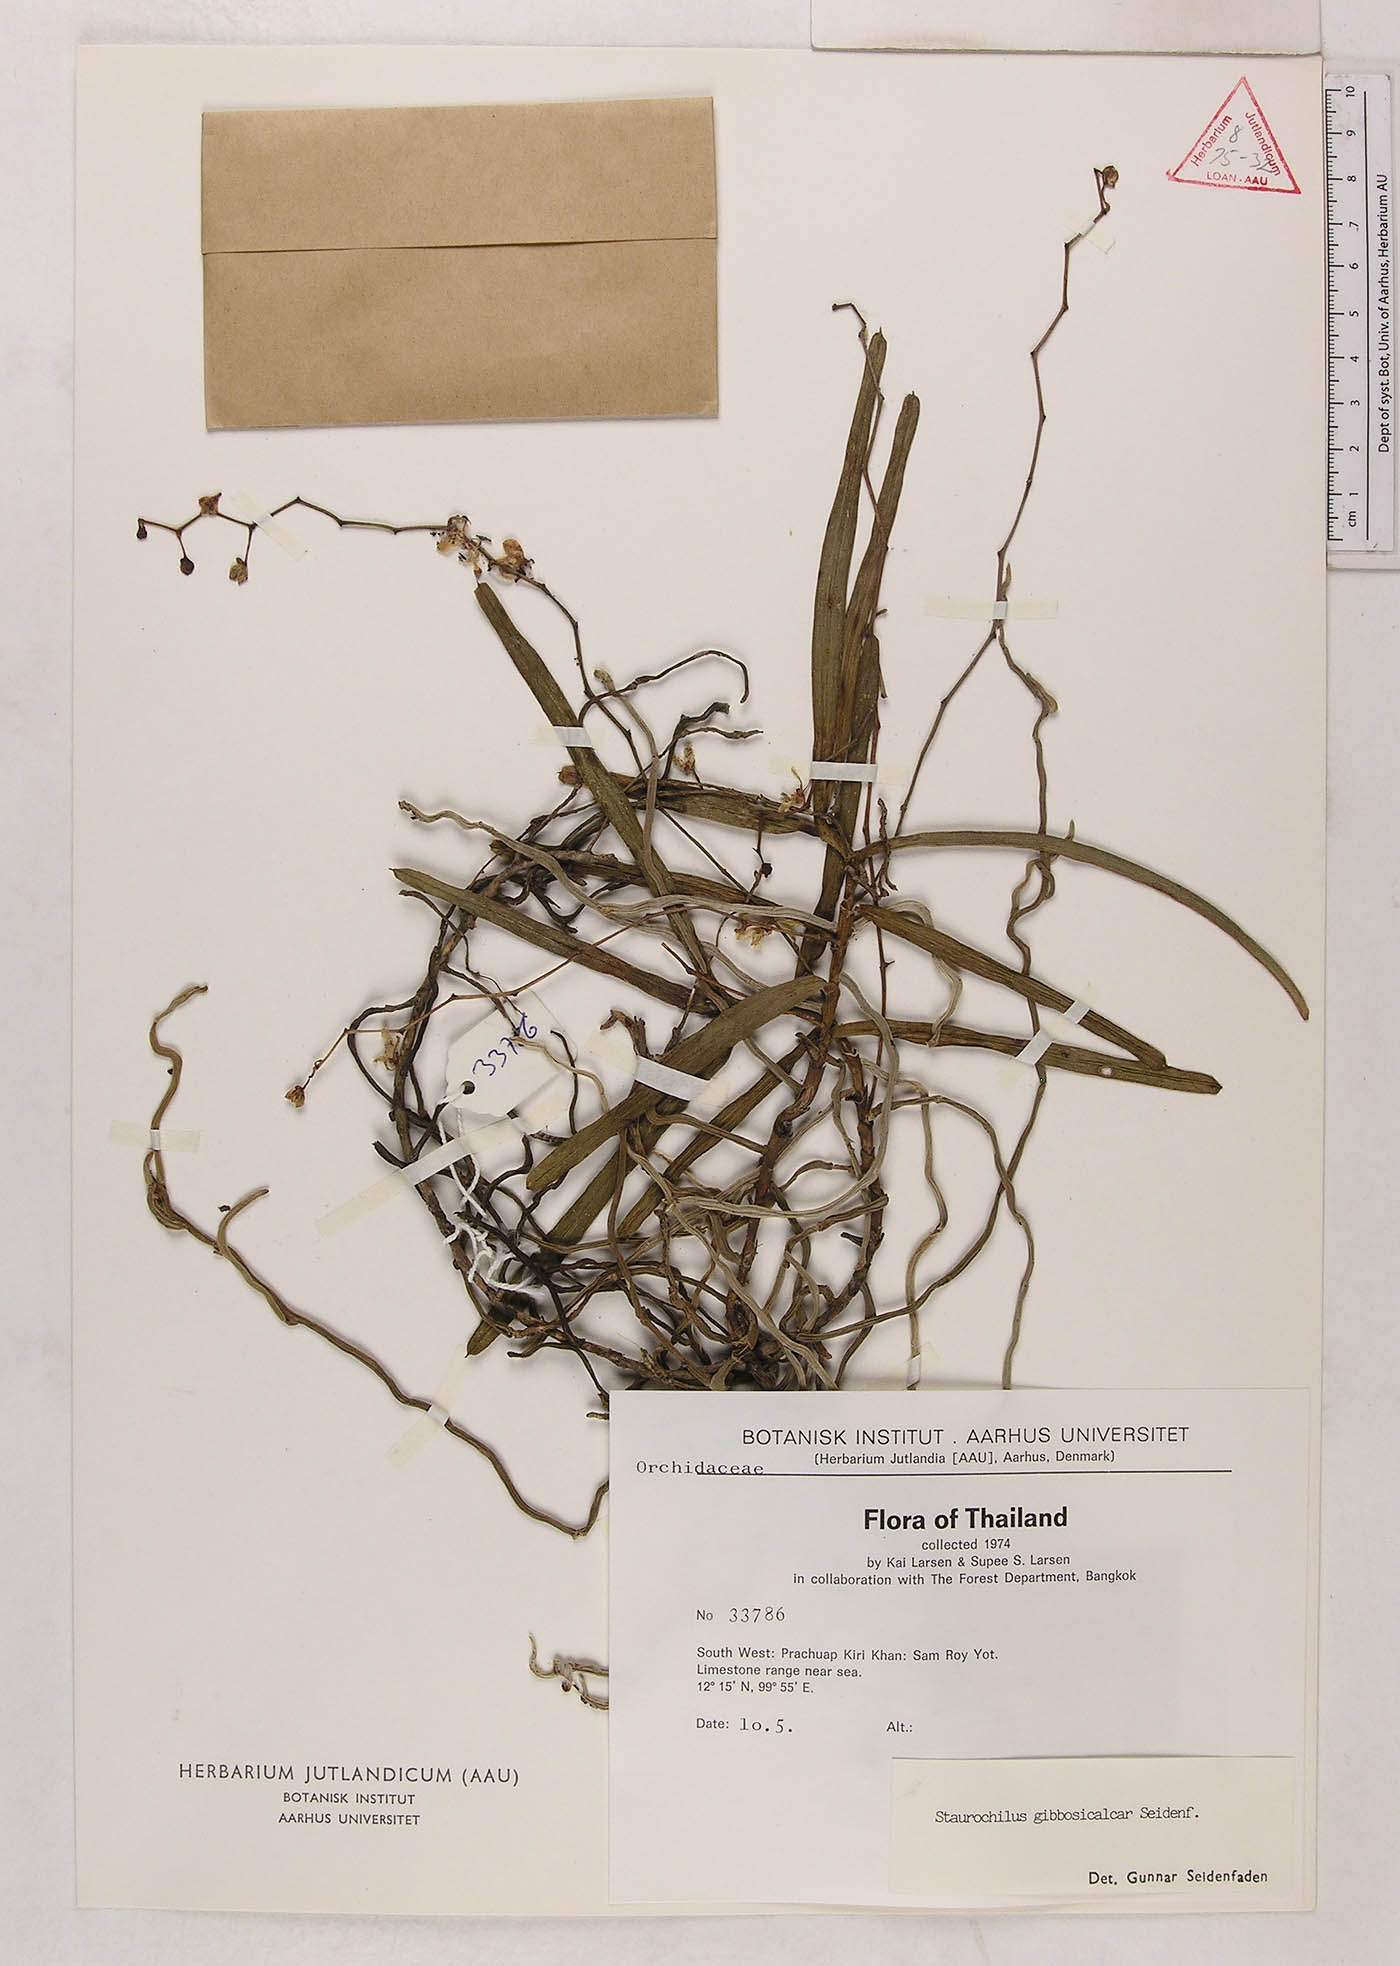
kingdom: Plantae
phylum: Tracheophyta
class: Liliopsida
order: Asparagales
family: Orchidaceae
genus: Trichoglottis
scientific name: Trichoglottis gibbosicalcar
